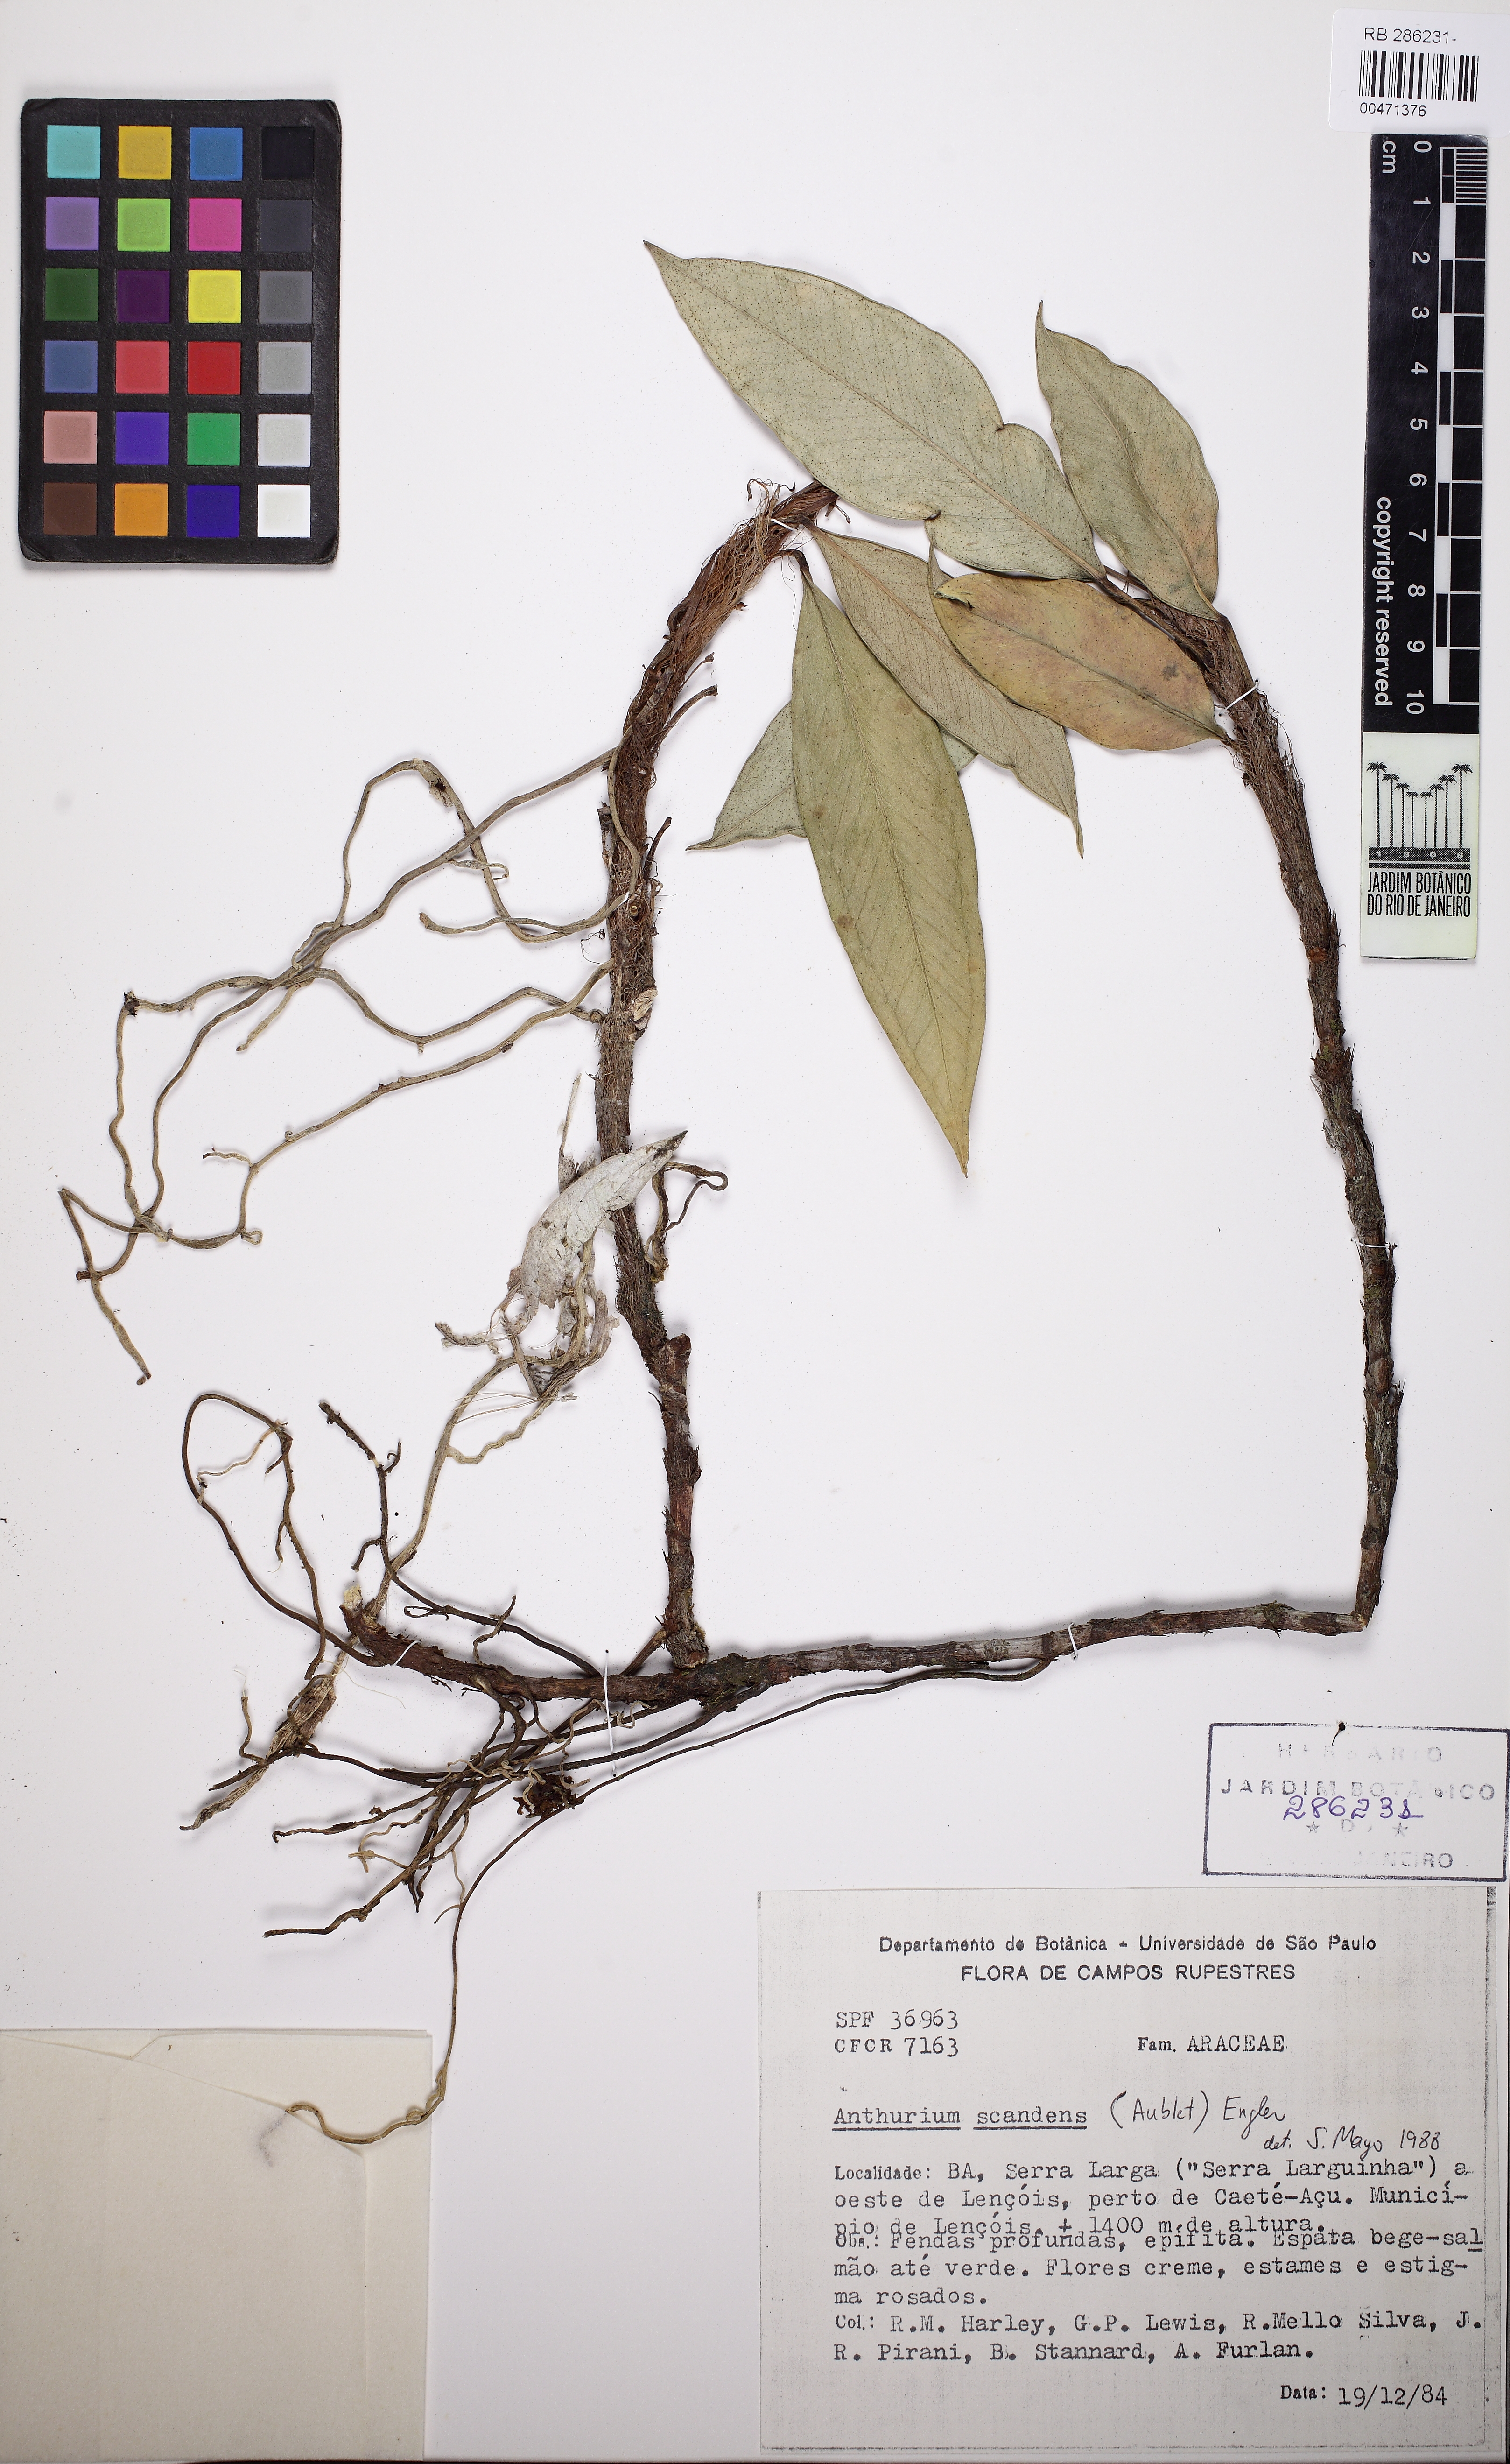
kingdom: Plantae
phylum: Tracheophyta
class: Liliopsida
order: Alismatales
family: Araceae
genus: Anthurium
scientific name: Anthurium scandens
